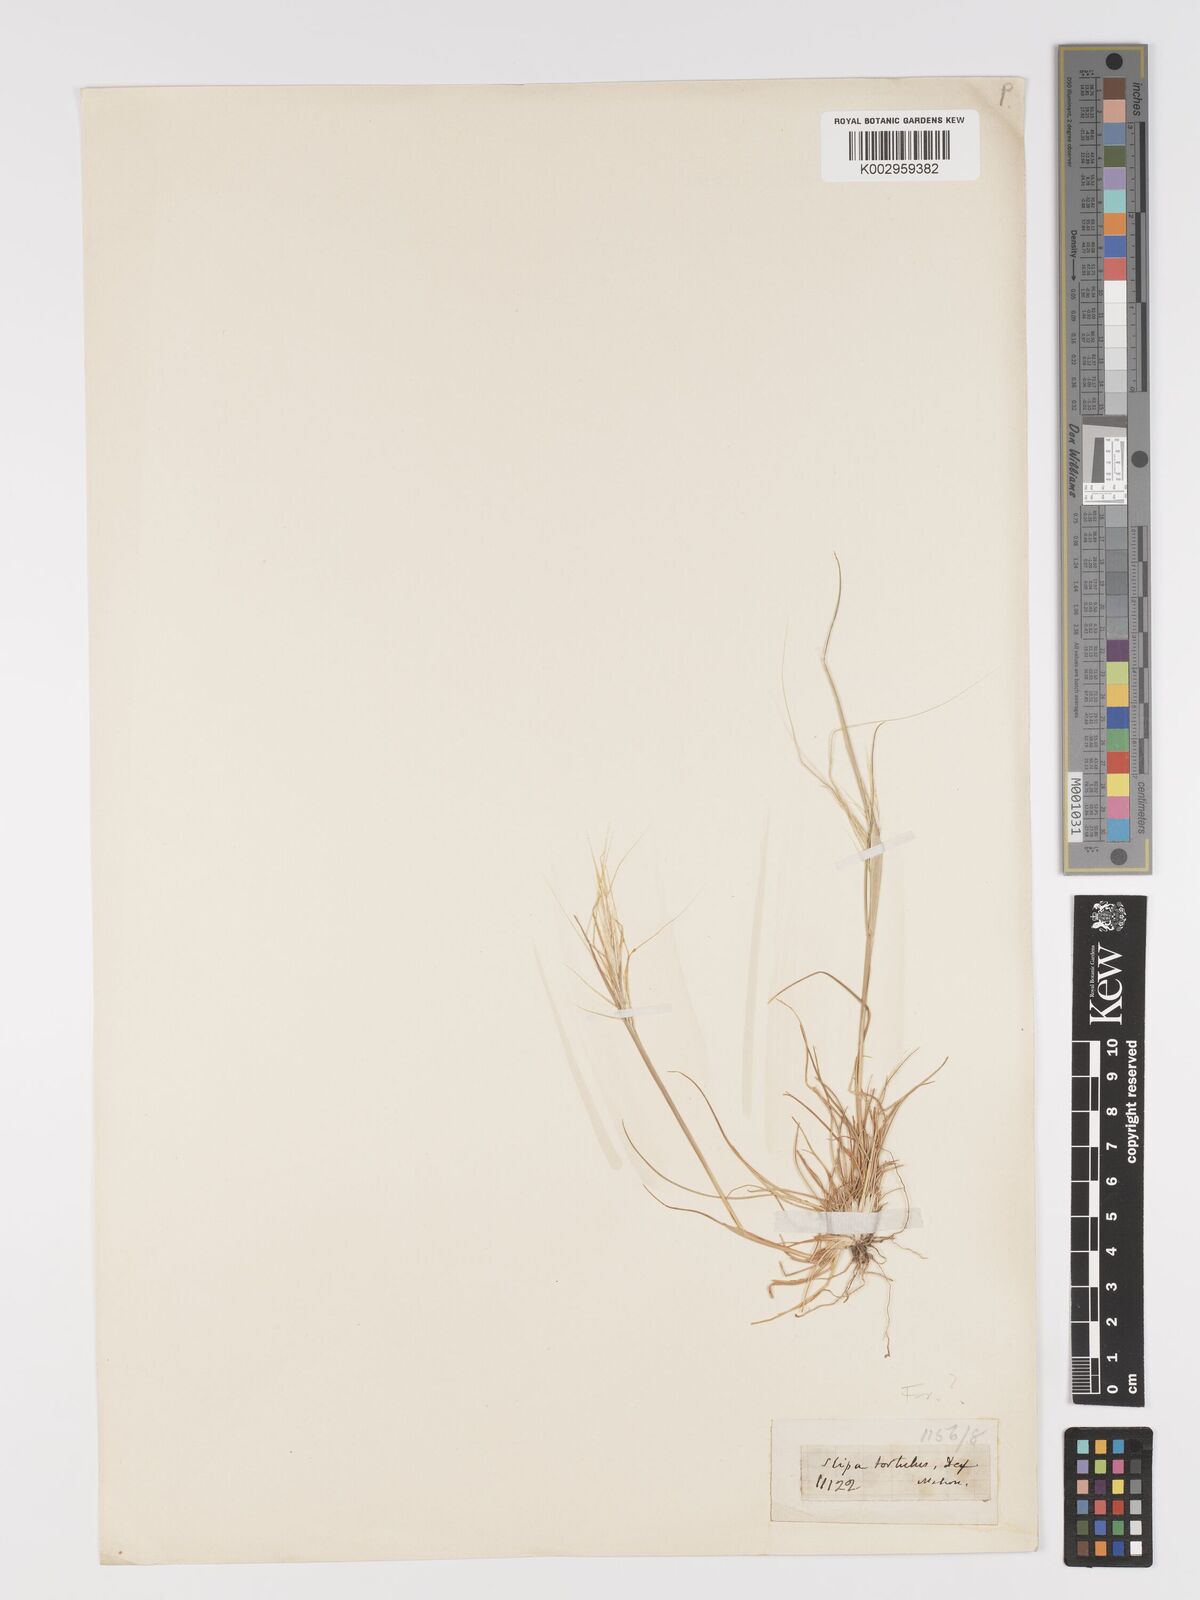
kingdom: Plantae
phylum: Tracheophyta
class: Liliopsida
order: Poales
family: Poaceae
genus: Stipellula
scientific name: Stipellula capensis
